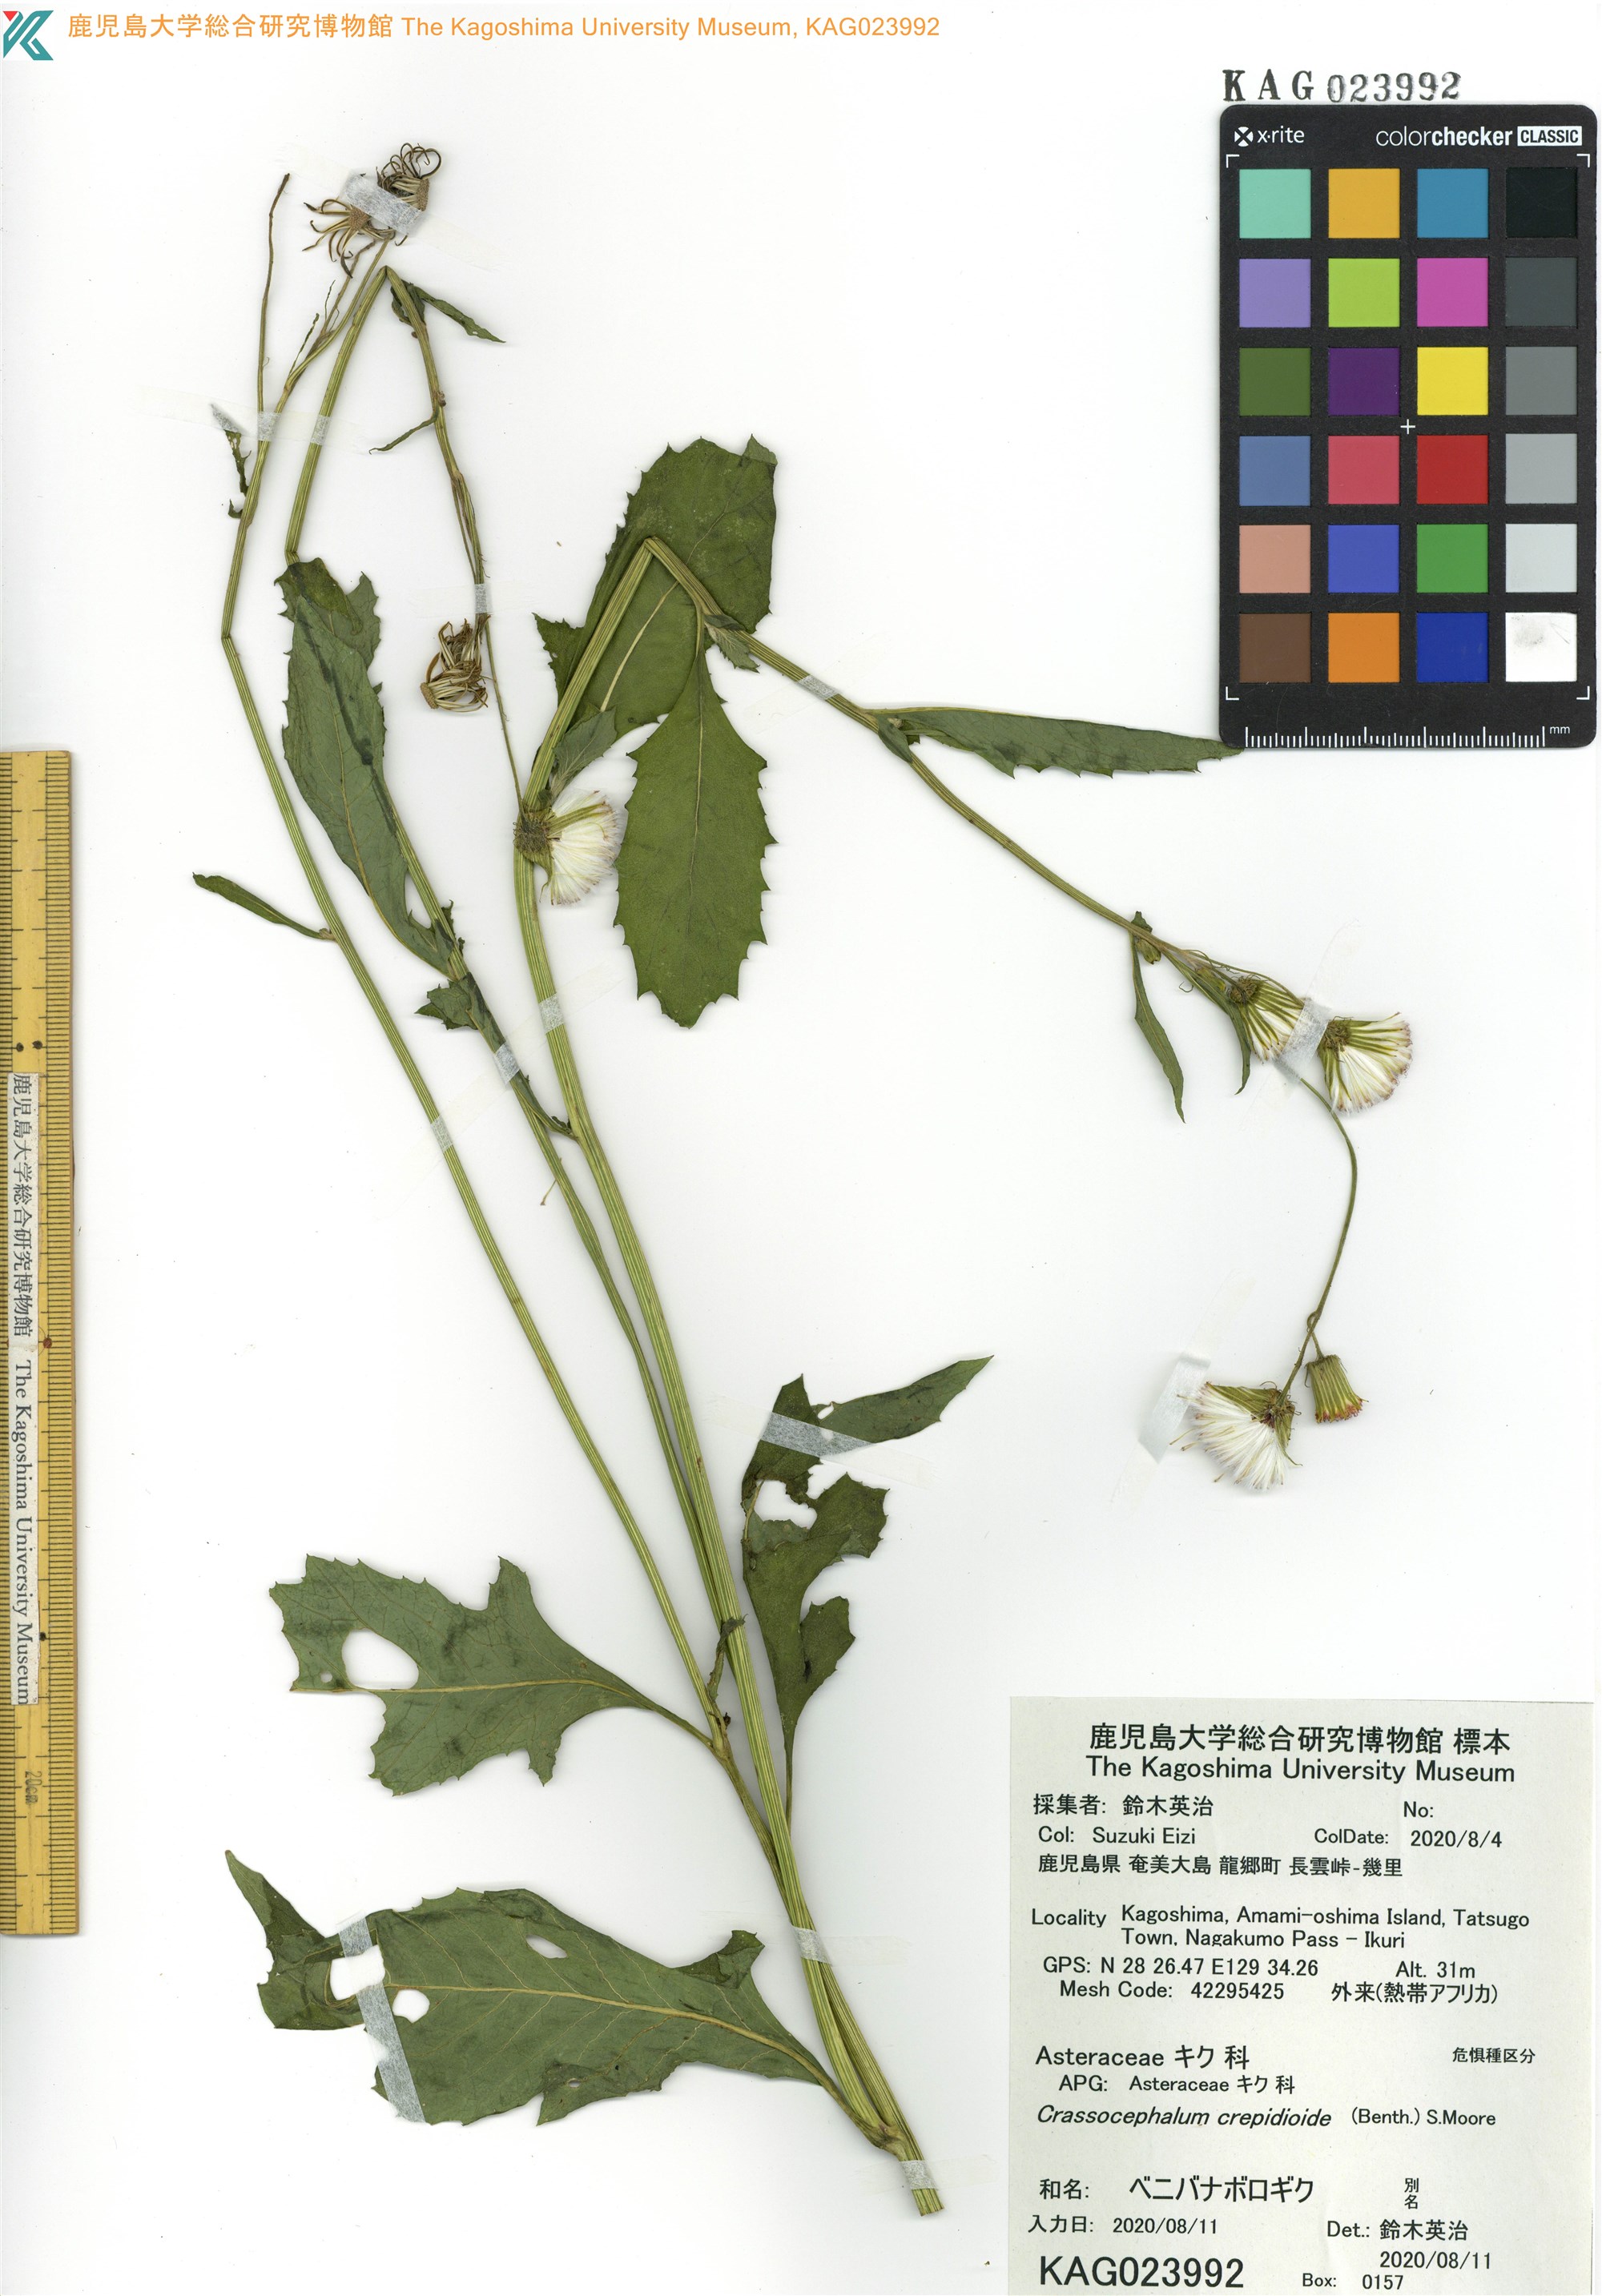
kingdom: Plantae
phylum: Tracheophyta
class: Magnoliopsida
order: Asterales
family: Asteraceae
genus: Crassocephalum
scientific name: Crassocephalum crepidioides
